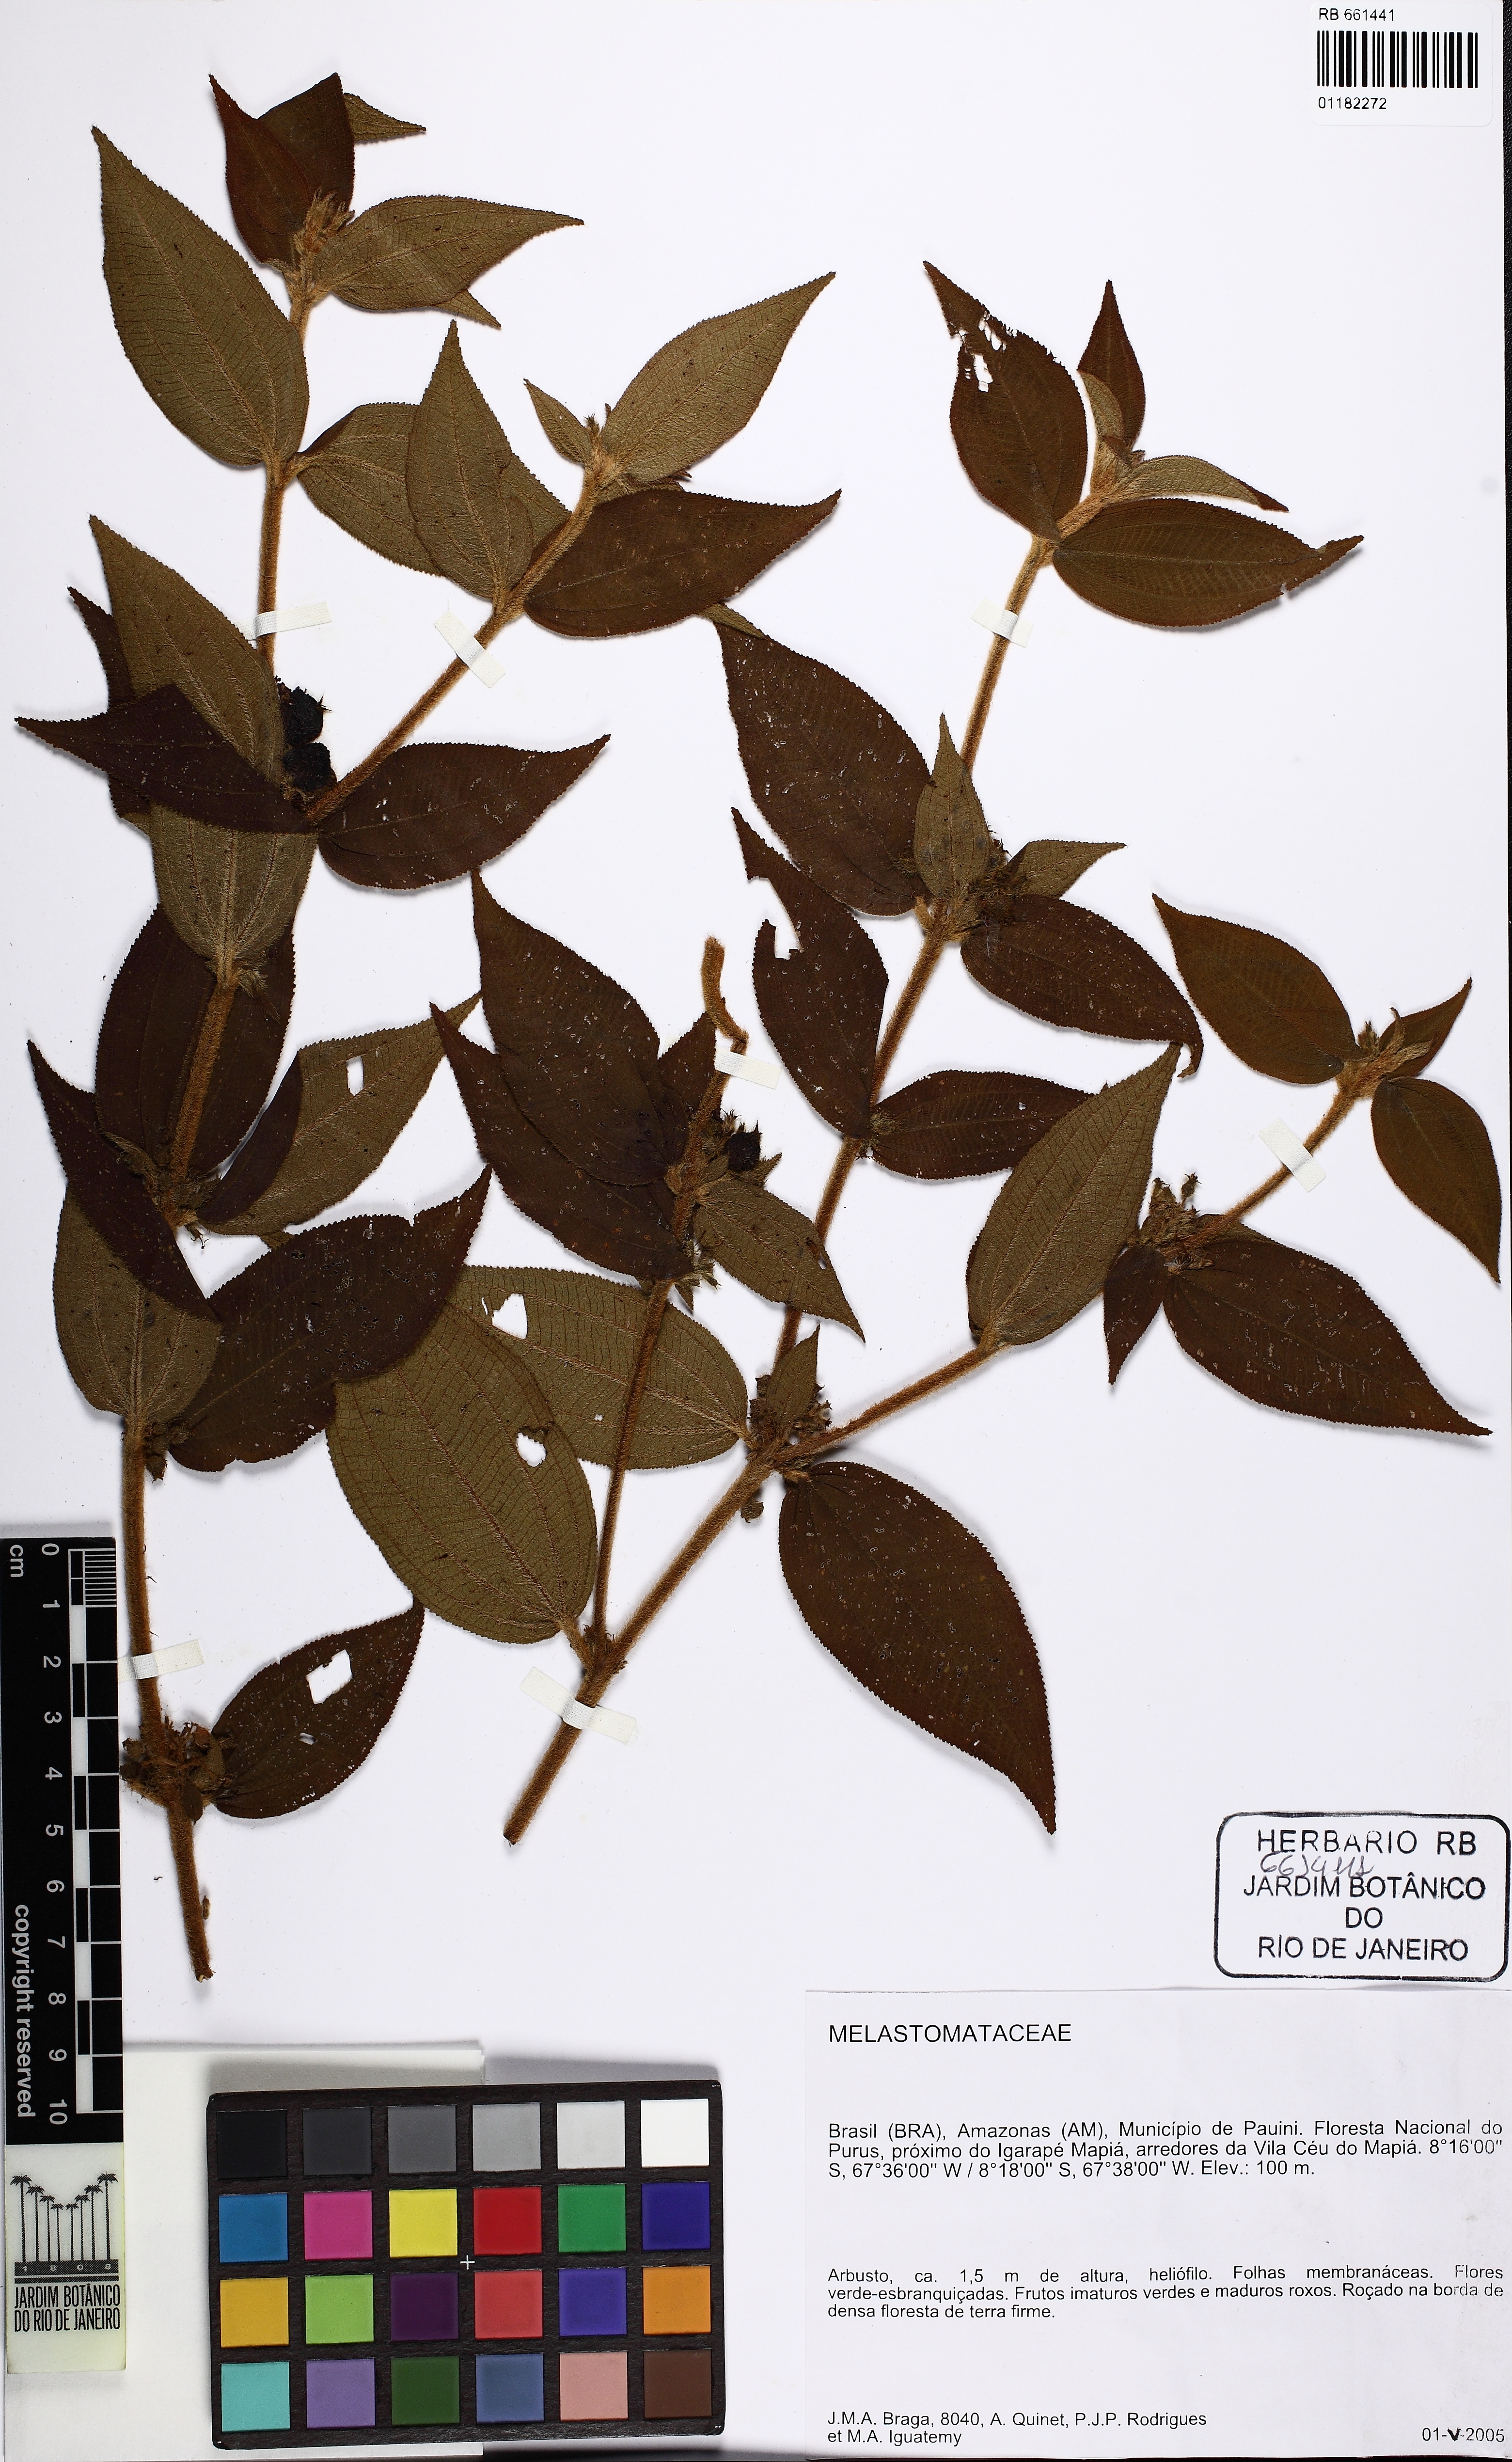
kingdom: Plantae
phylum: Tracheophyta
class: Magnoliopsida
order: Myrtales
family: Melastomataceae
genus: Miconia
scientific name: Miconia ernstulei
